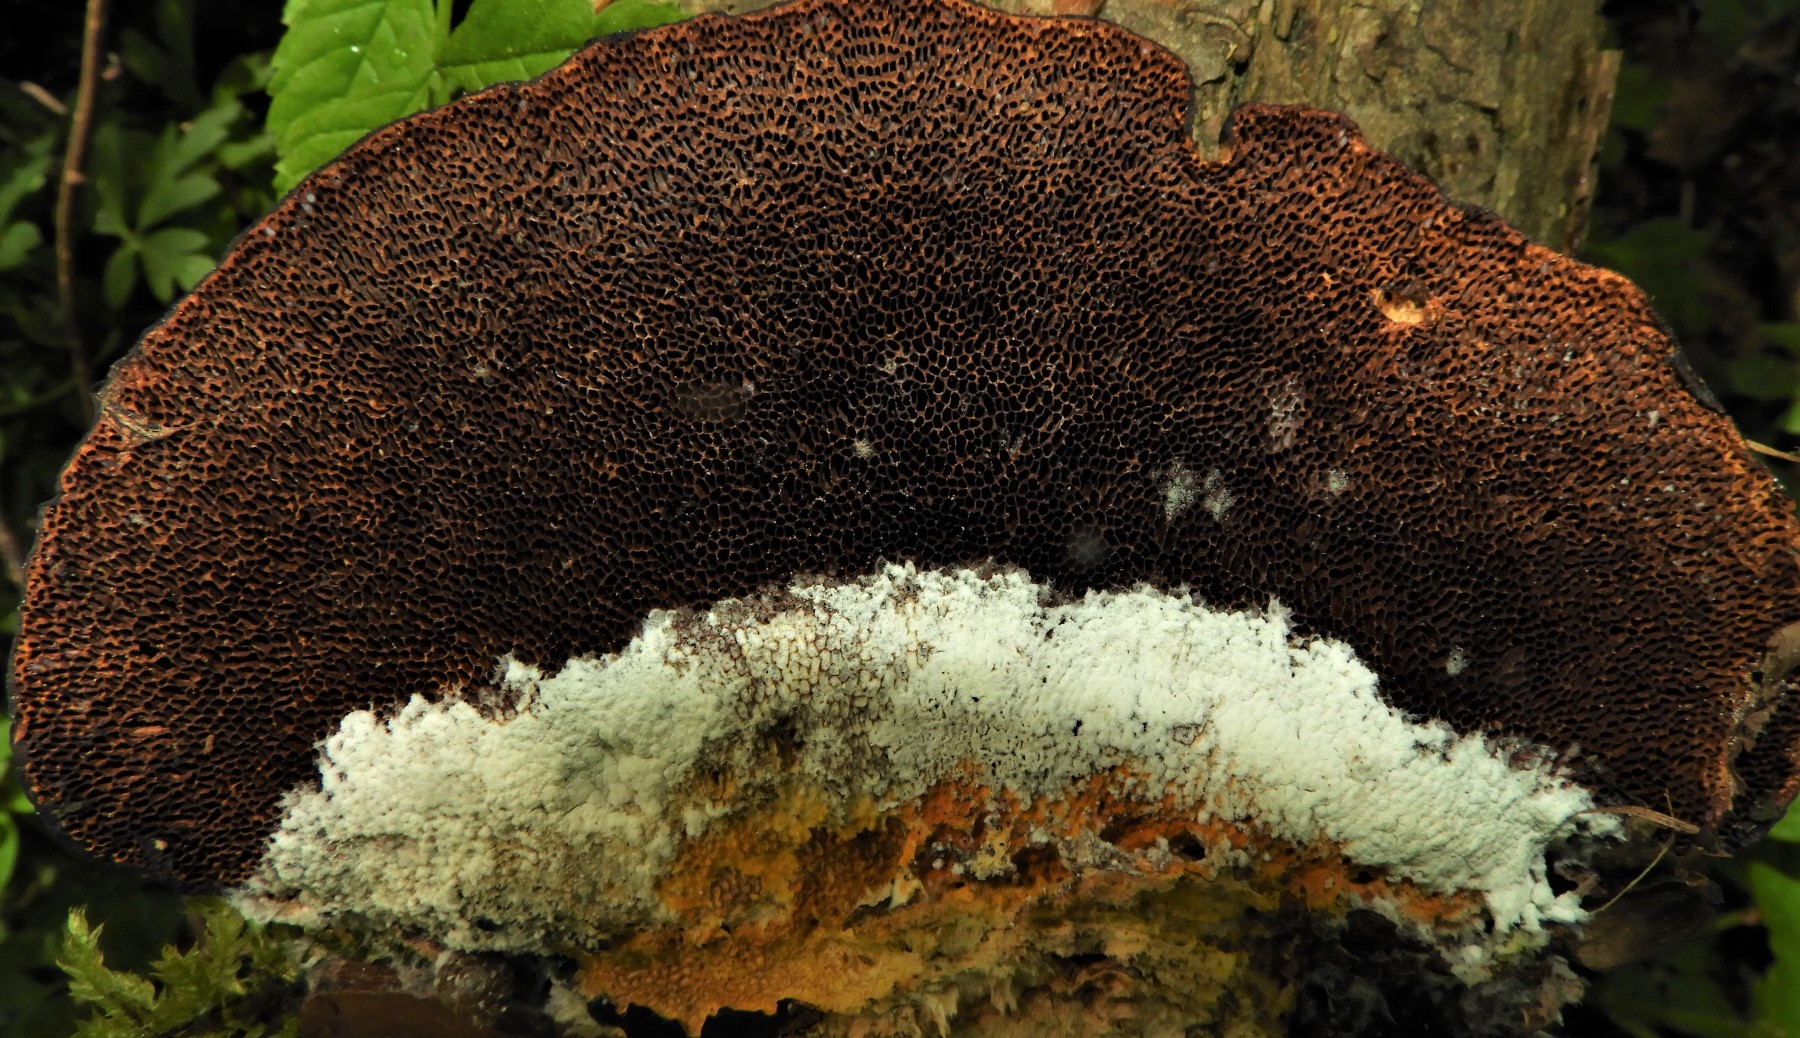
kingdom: Fungi
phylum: Ascomycota
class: Sordariomycetes
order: Hypocreales
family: Hypocreaceae
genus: Hypomyces
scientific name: Hypomyces aurantius
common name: almindelig snylteskorpe
